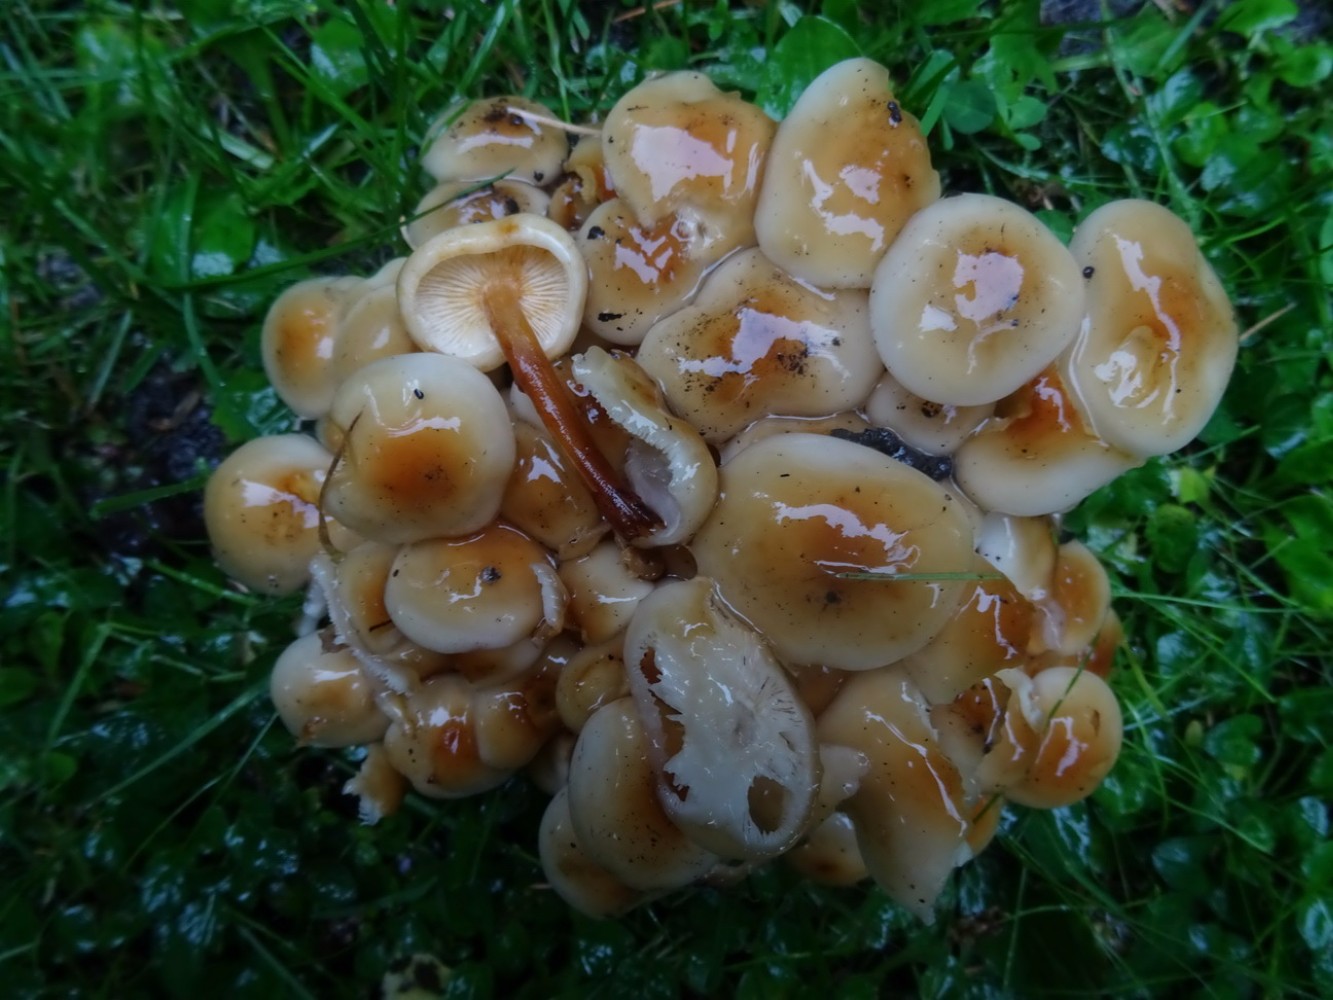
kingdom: Fungi
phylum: Basidiomycota
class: Agaricomycetes
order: Agaricales
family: Physalacriaceae
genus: Flammulina
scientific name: Flammulina fennae
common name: rodslående fløjlsfod
